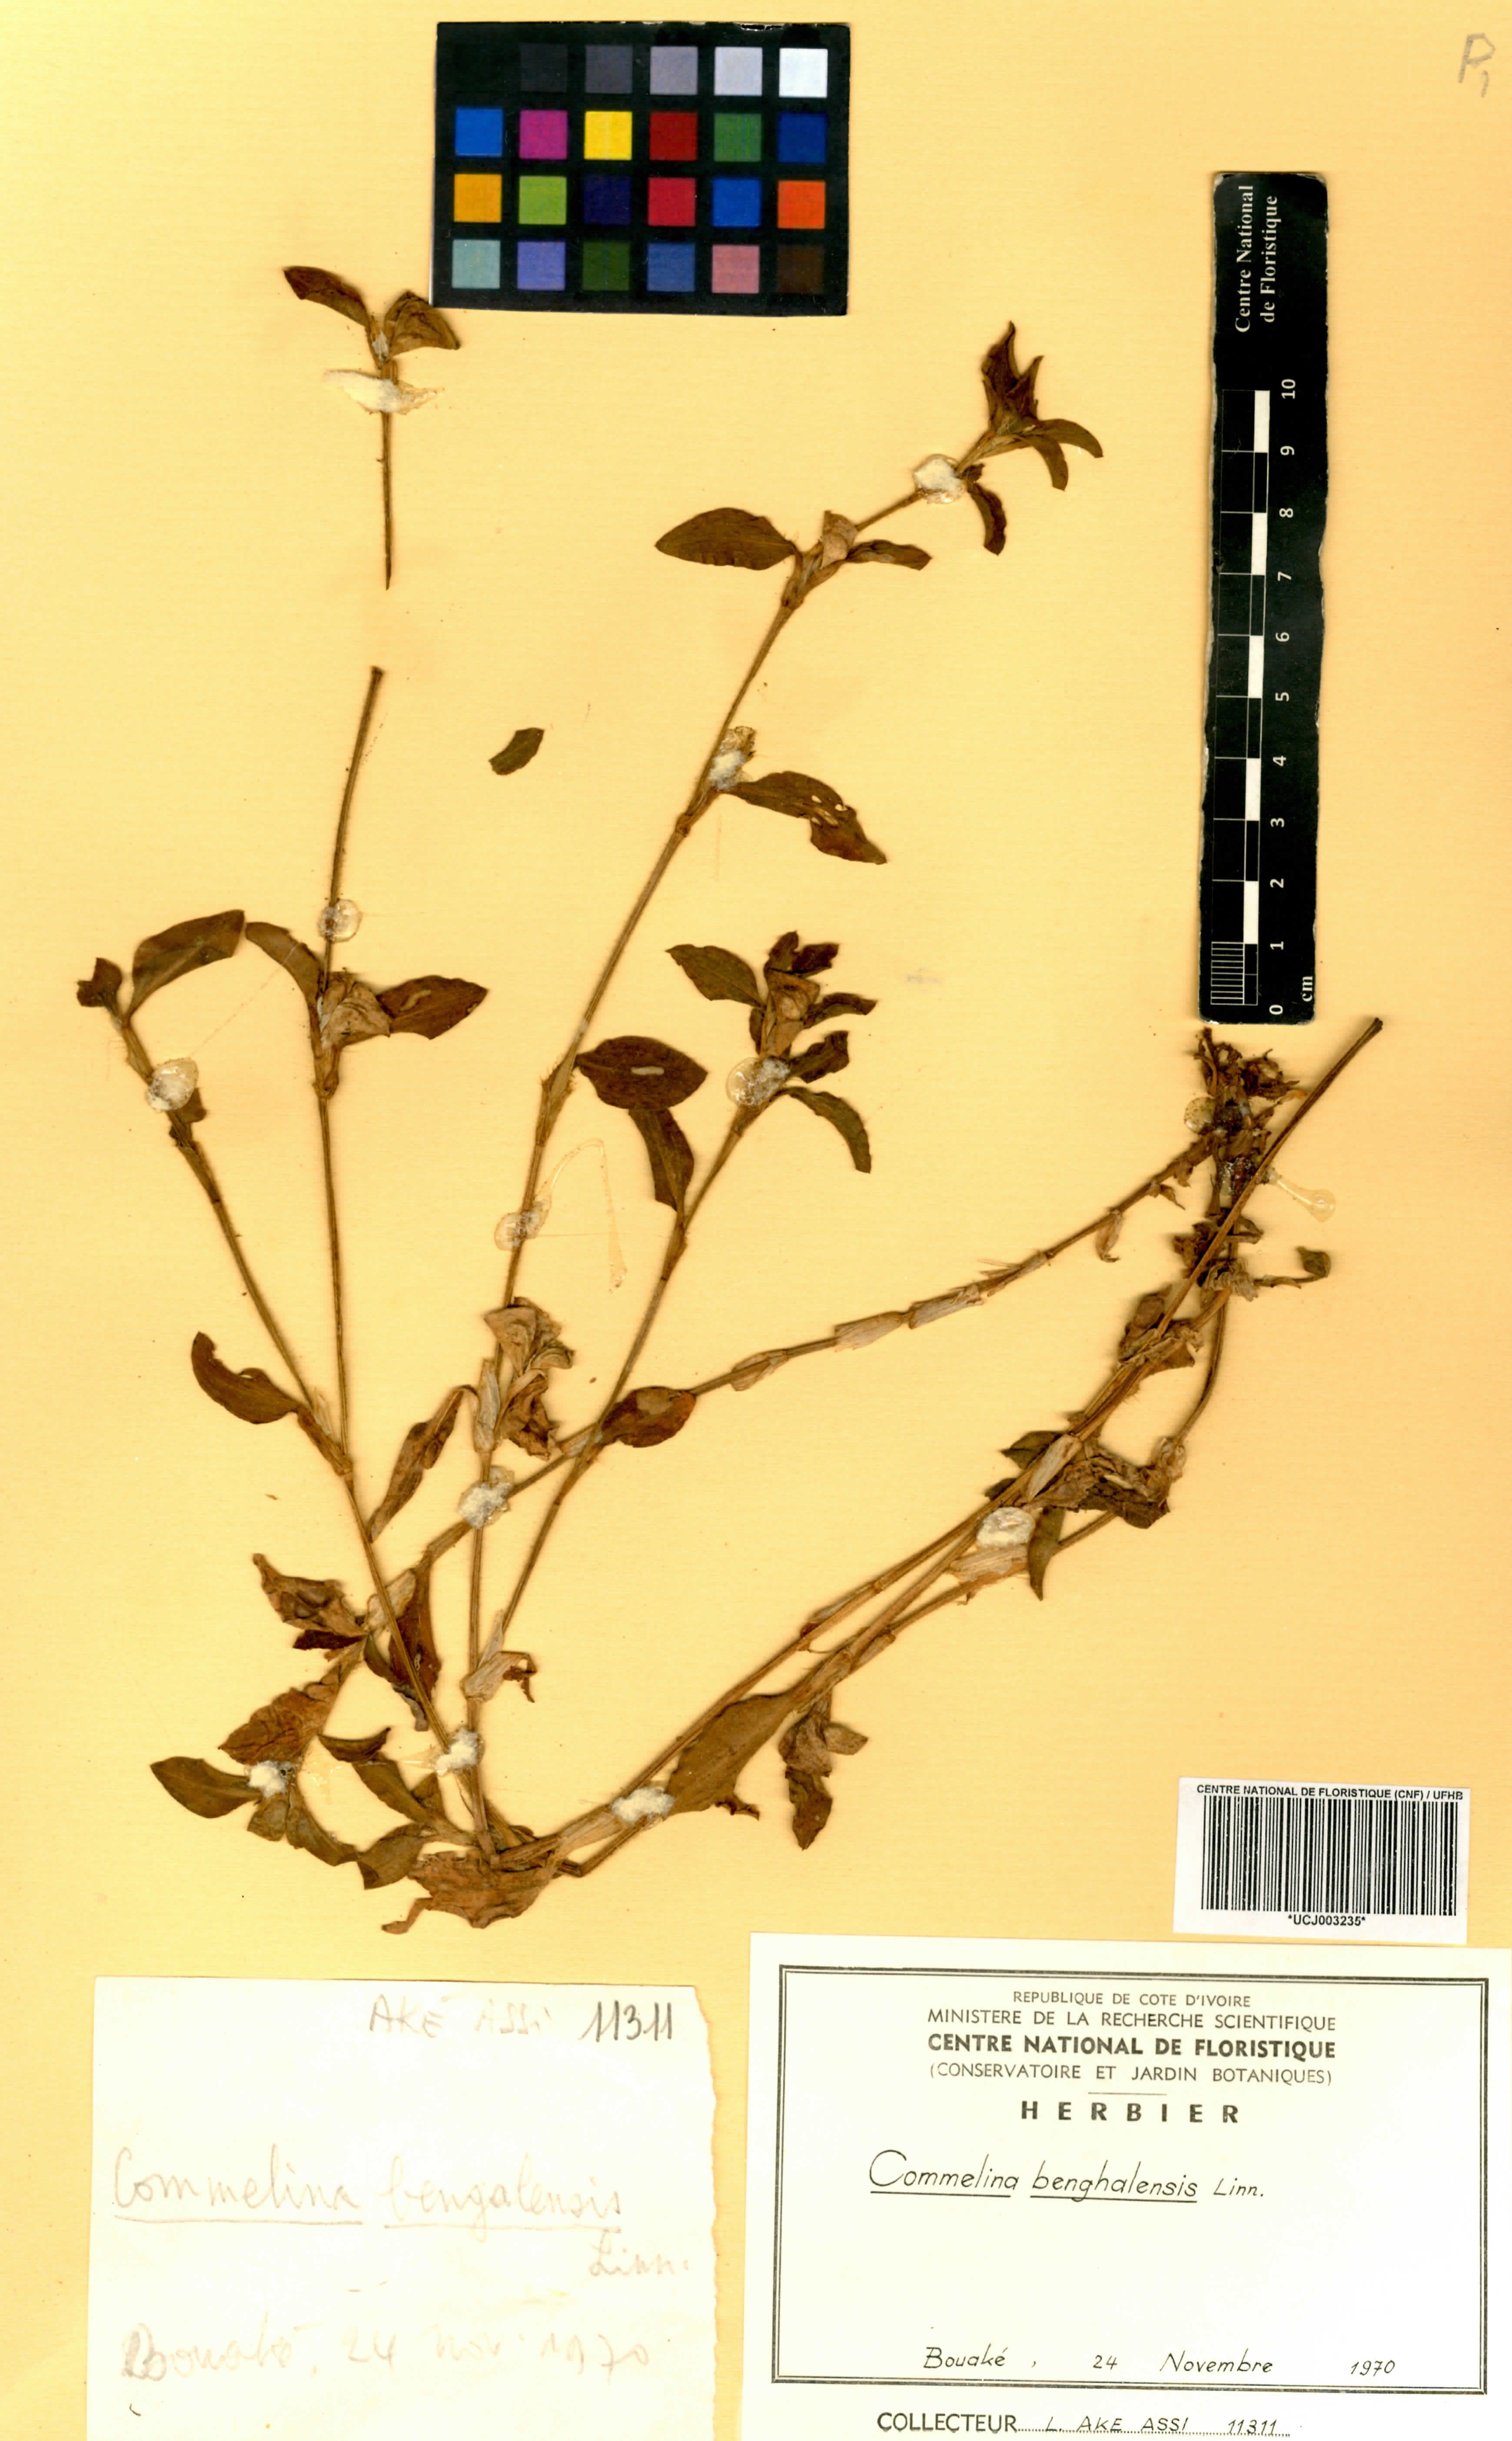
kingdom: Plantae
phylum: Tracheophyta
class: Liliopsida
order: Commelinales
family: Commelinaceae
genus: Commelina
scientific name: Commelina benghalensis
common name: Jio
